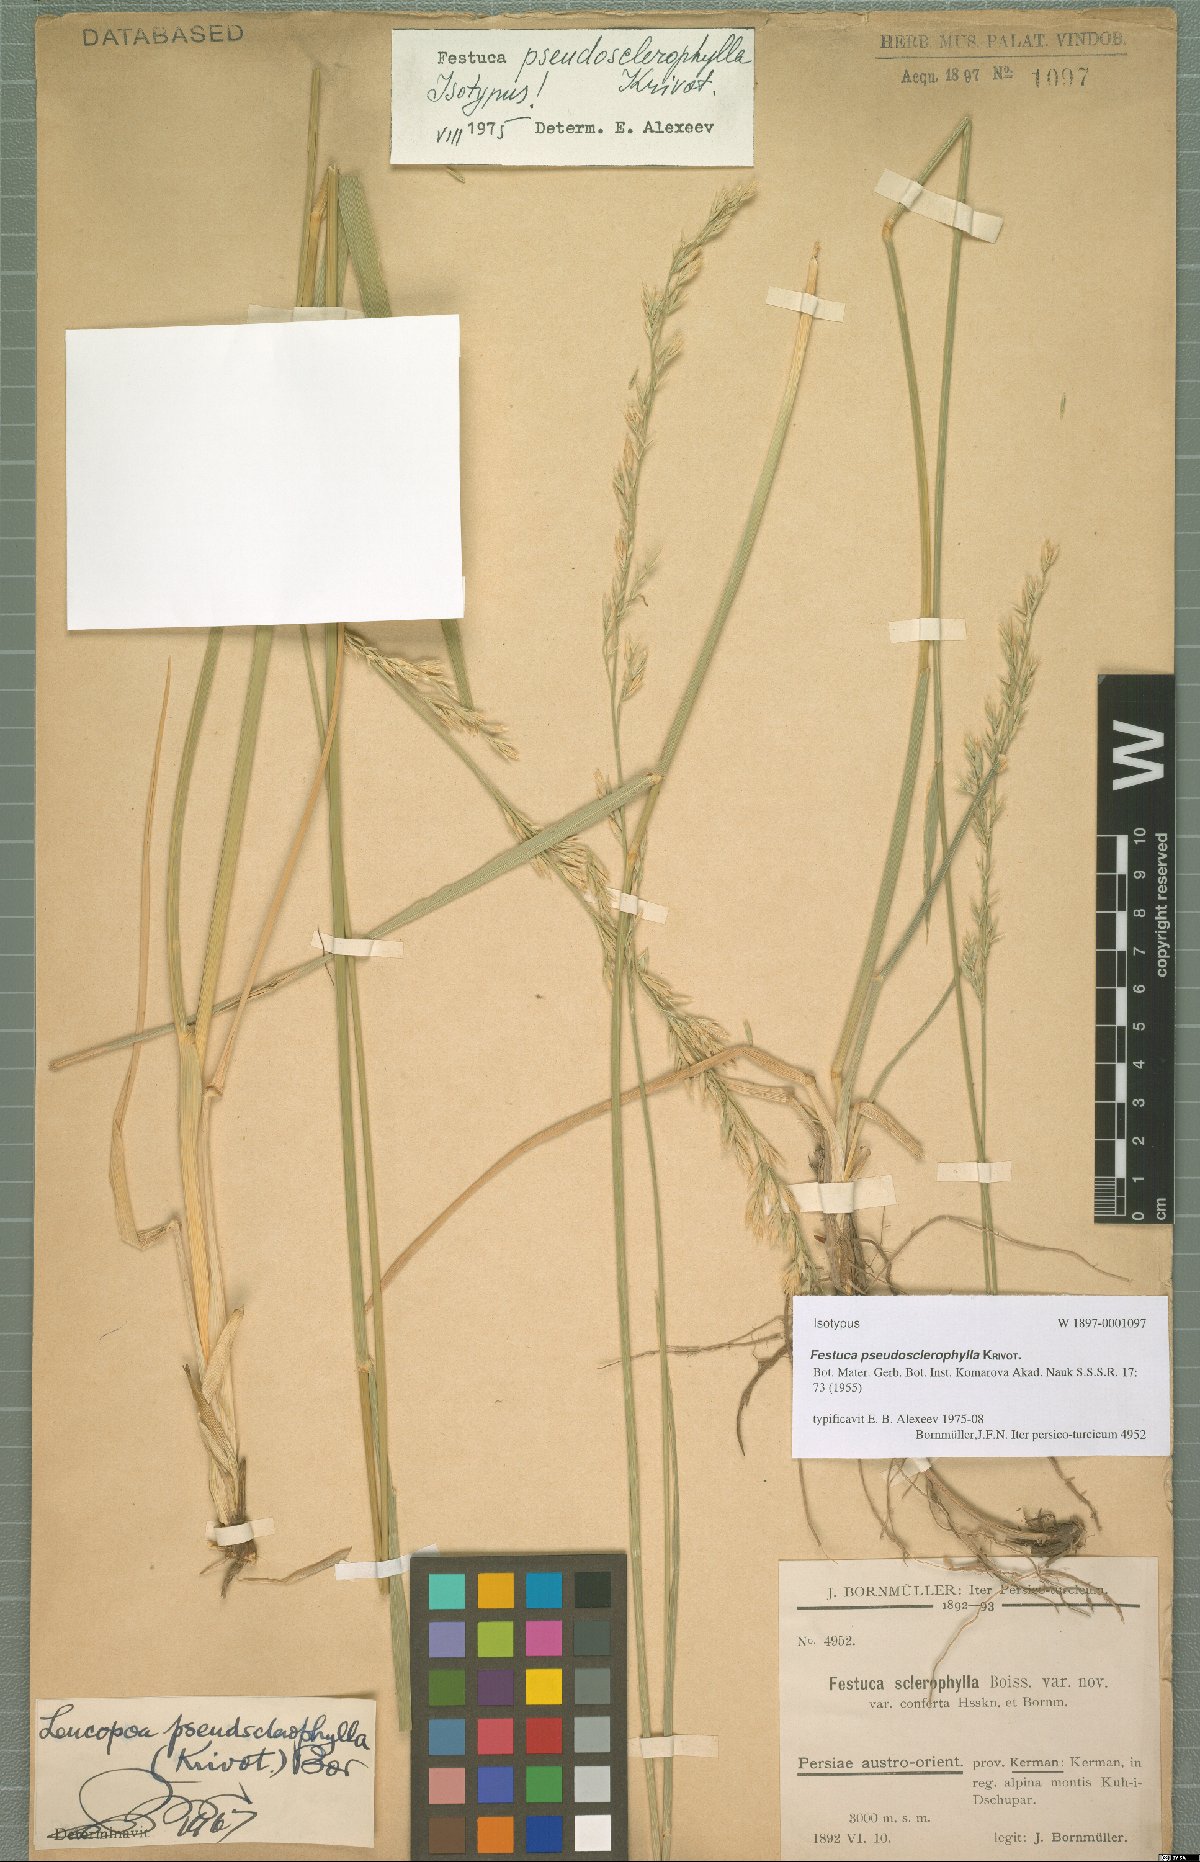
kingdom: Plantae
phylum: Tracheophyta
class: Liliopsida
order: Poales
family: Poaceae
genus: Festuca
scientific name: Festuca pseudosclerophylla
